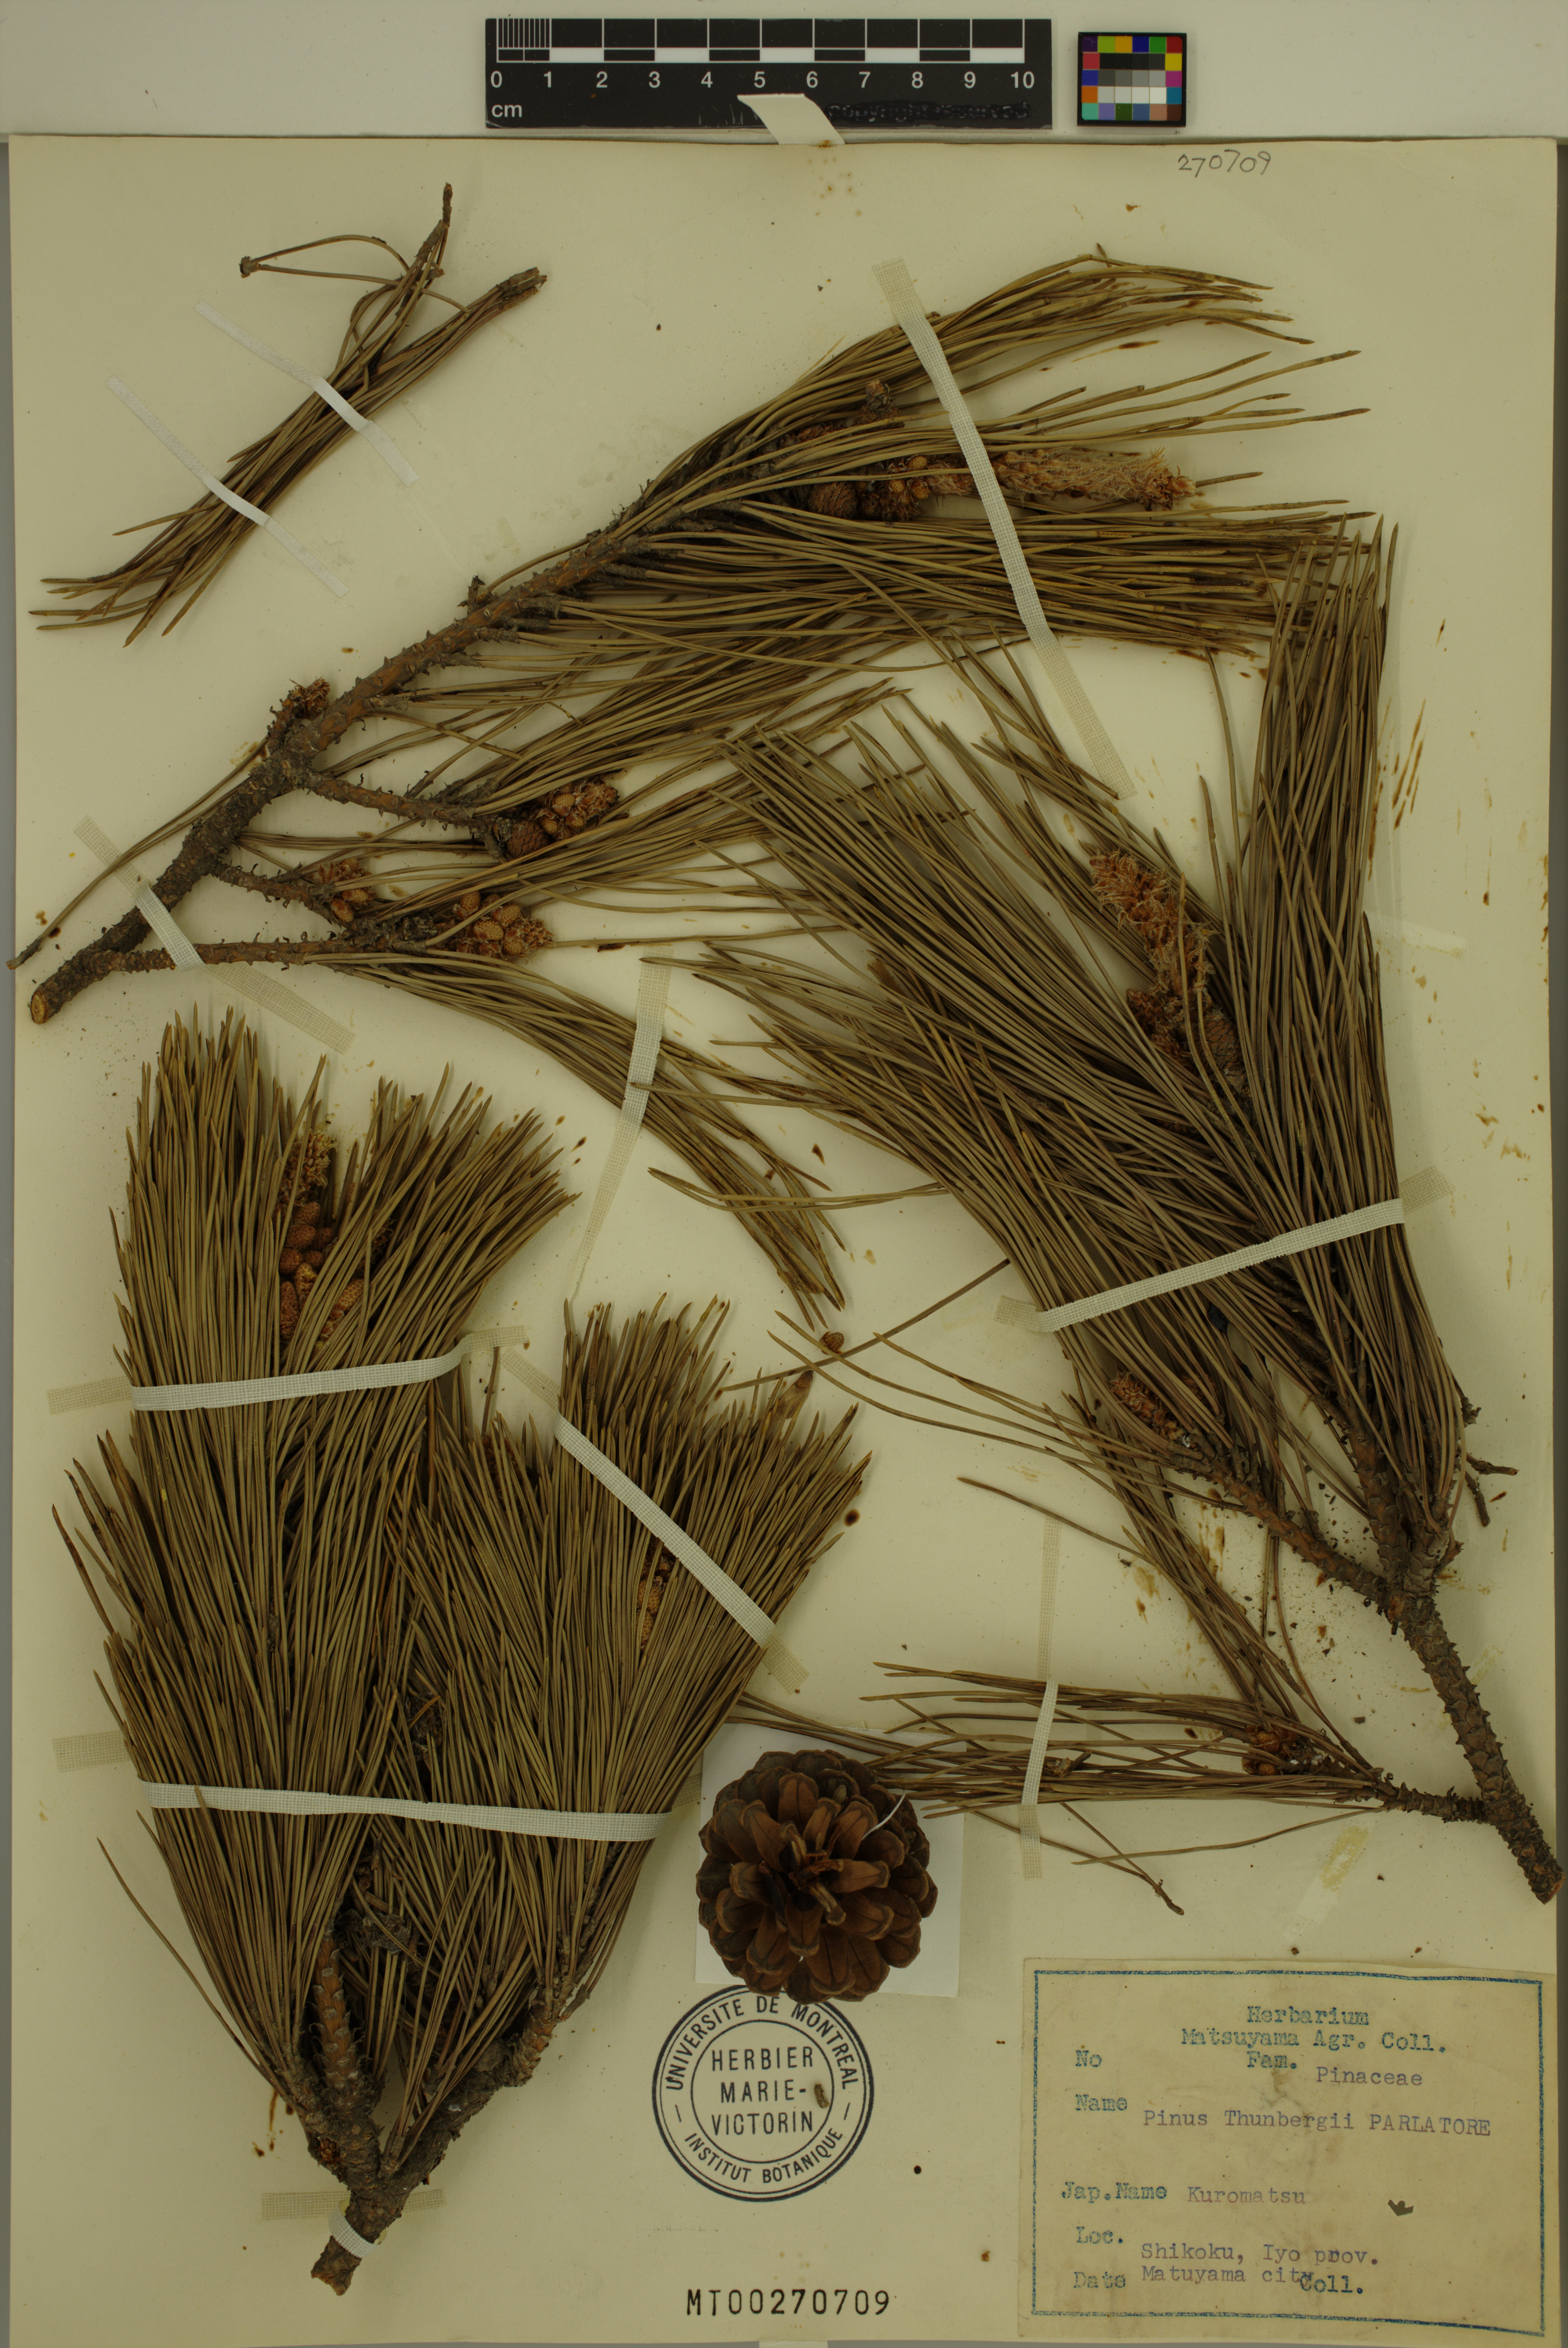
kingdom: Plantae
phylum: Tracheophyta
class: Pinopsida
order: Pinales
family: Pinaceae
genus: Pinus
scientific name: Pinus thunbergii
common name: Japanese black pine
